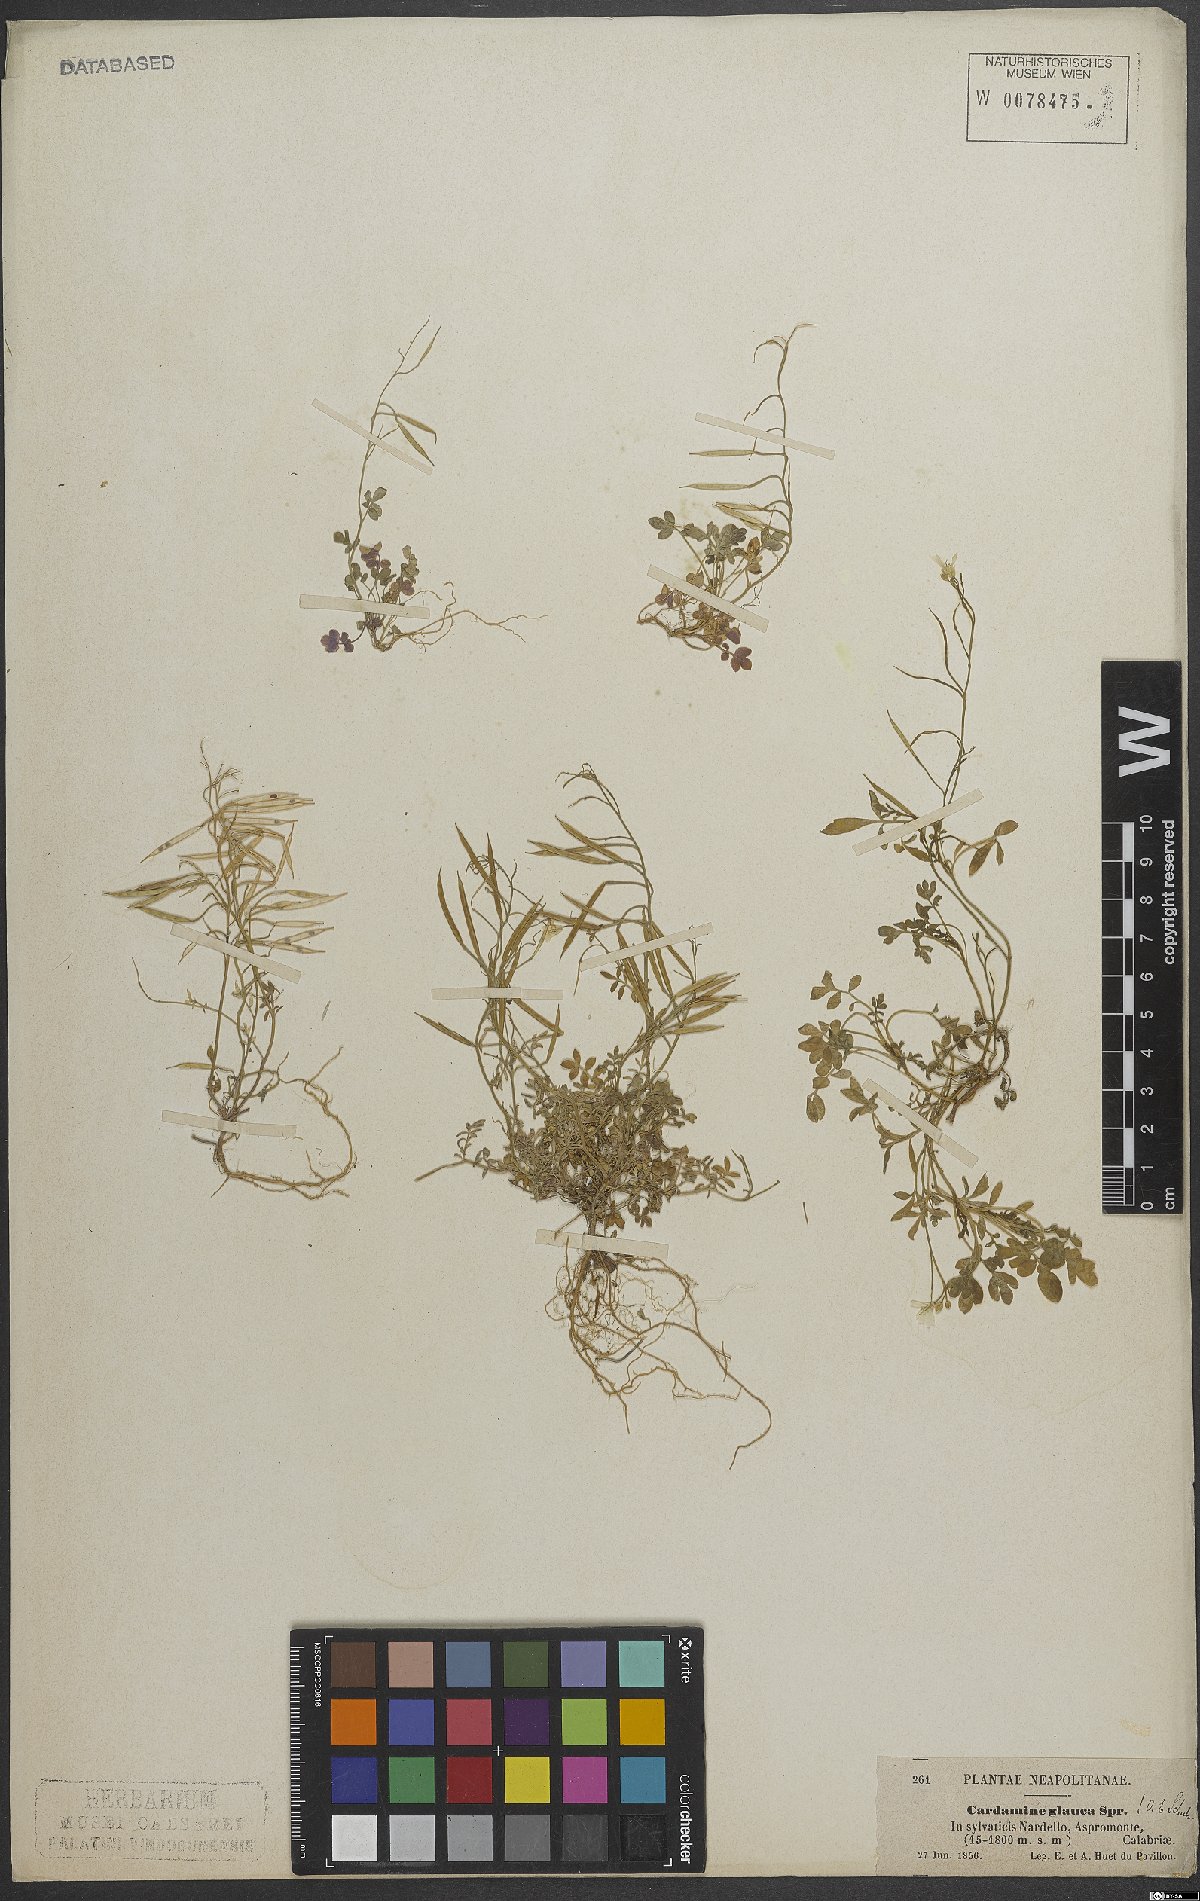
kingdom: Plantae
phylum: Tracheophyta
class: Magnoliopsida
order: Brassicales
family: Brassicaceae
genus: Cardamine
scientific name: Cardamine glauca
